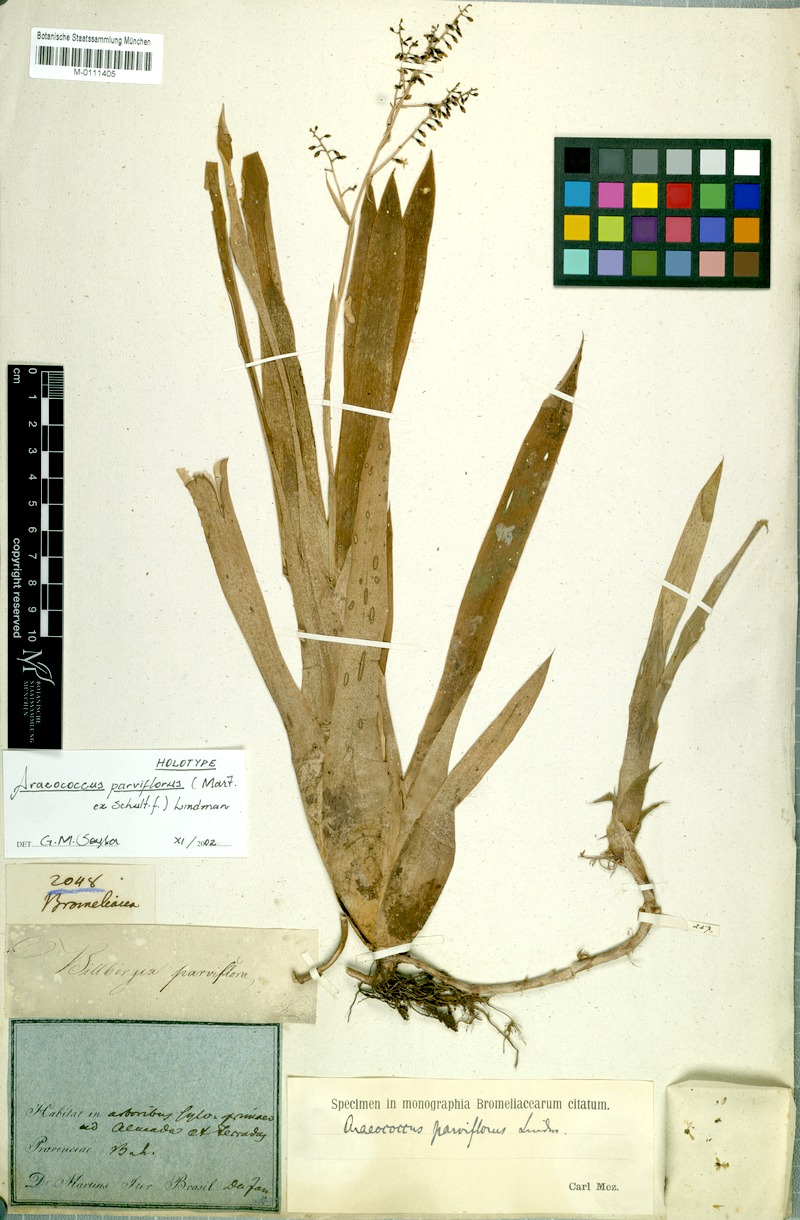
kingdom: Plantae
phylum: Tracheophyta
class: Liliopsida
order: Poales
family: Bromeliaceae
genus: Pseudaraeococcus
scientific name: Pseudaraeococcus parviflorus
